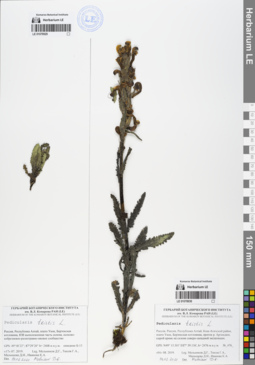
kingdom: Plantae
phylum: Tracheophyta
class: Magnoliopsida
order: Lamiales
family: Orobanchaceae
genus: Pedicularis
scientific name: Pedicularis tristis
